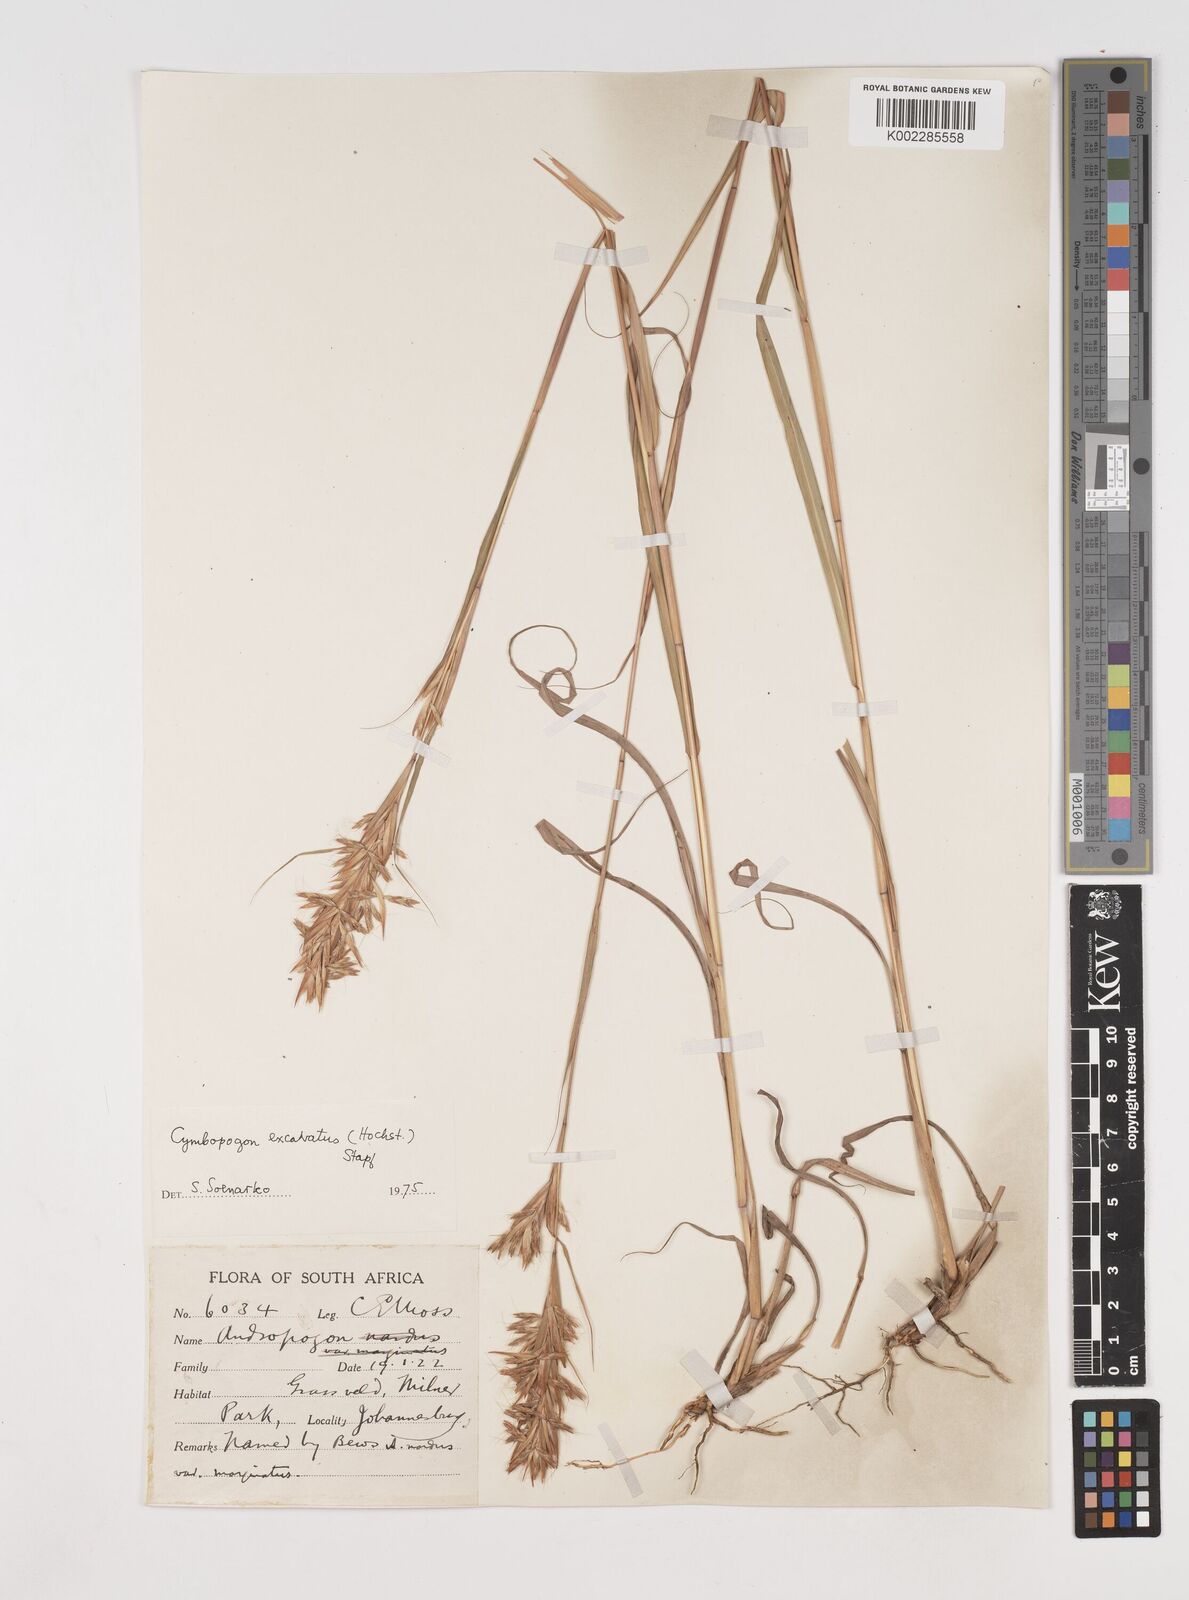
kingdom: Plantae
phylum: Tracheophyta
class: Liliopsida
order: Poales
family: Poaceae
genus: Cymbopogon
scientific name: Cymbopogon caesius
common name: Kachi grass
